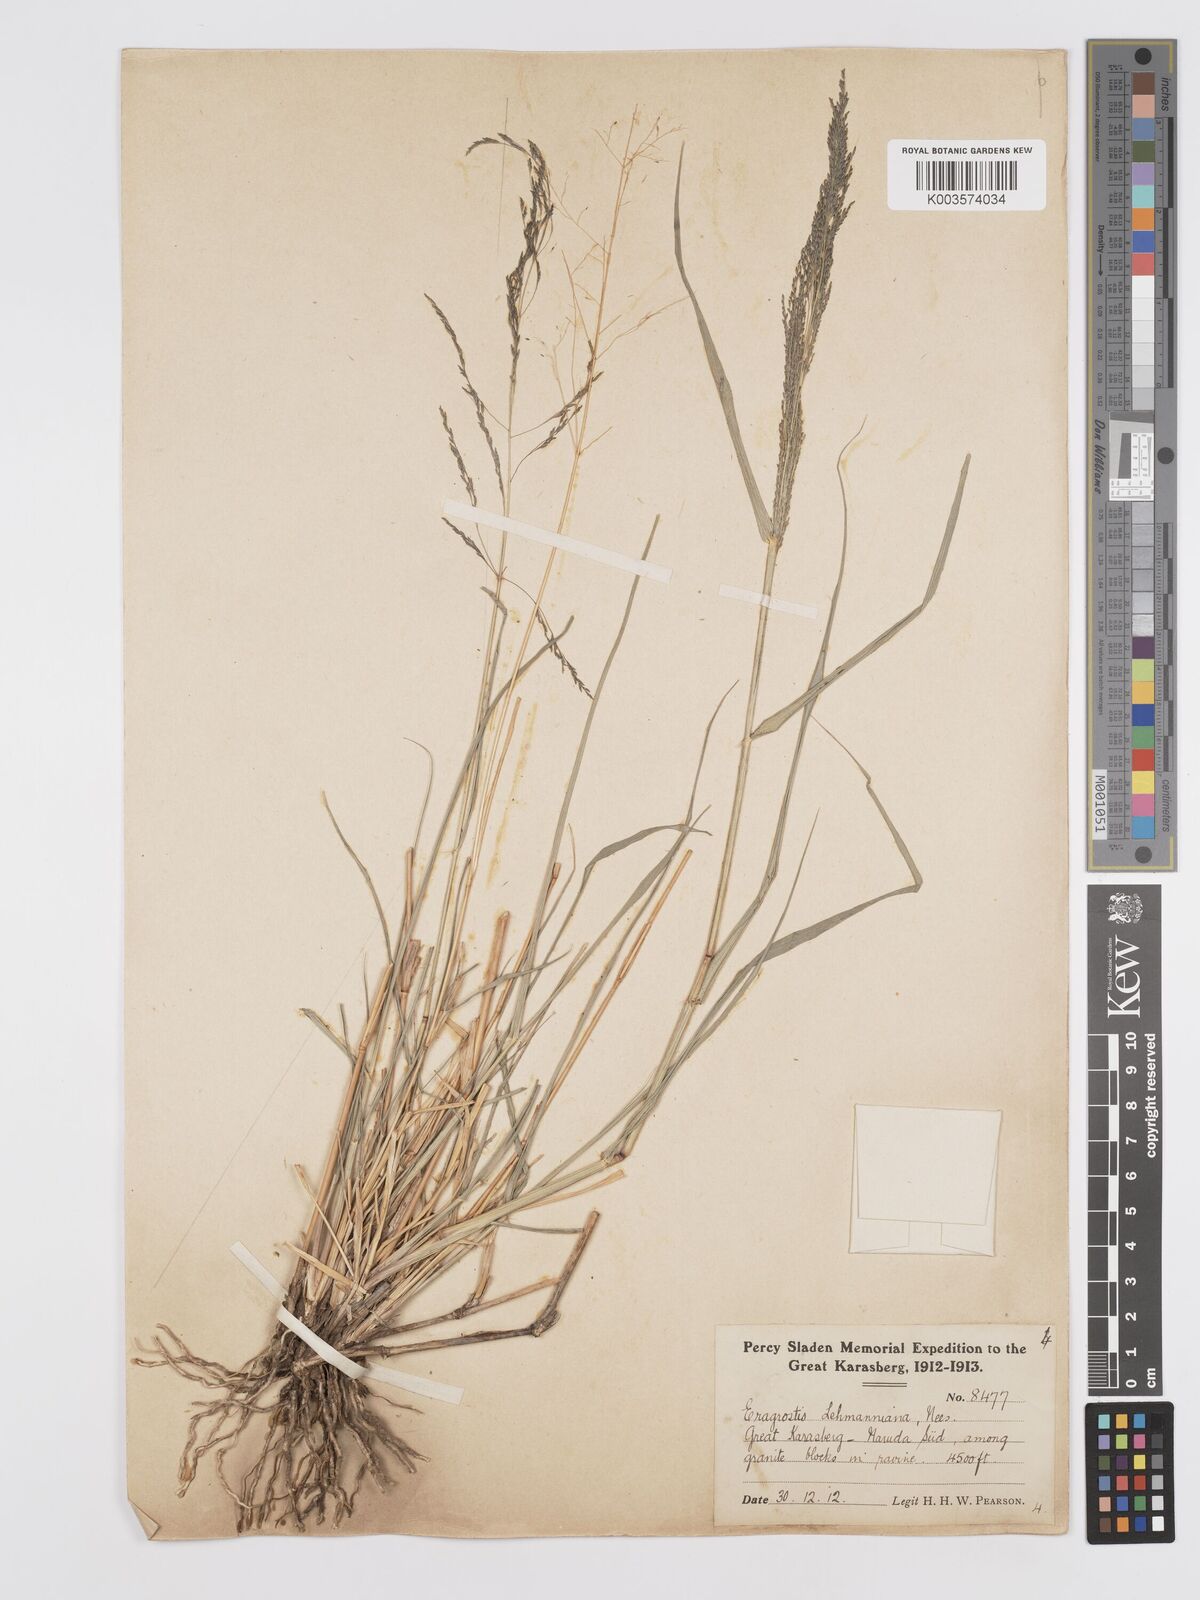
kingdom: Plantae
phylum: Tracheophyta
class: Liliopsida
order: Poales
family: Poaceae
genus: Eragrostis
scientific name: Eragrostis cylindriflora
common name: Cylinderflower lovegrass
